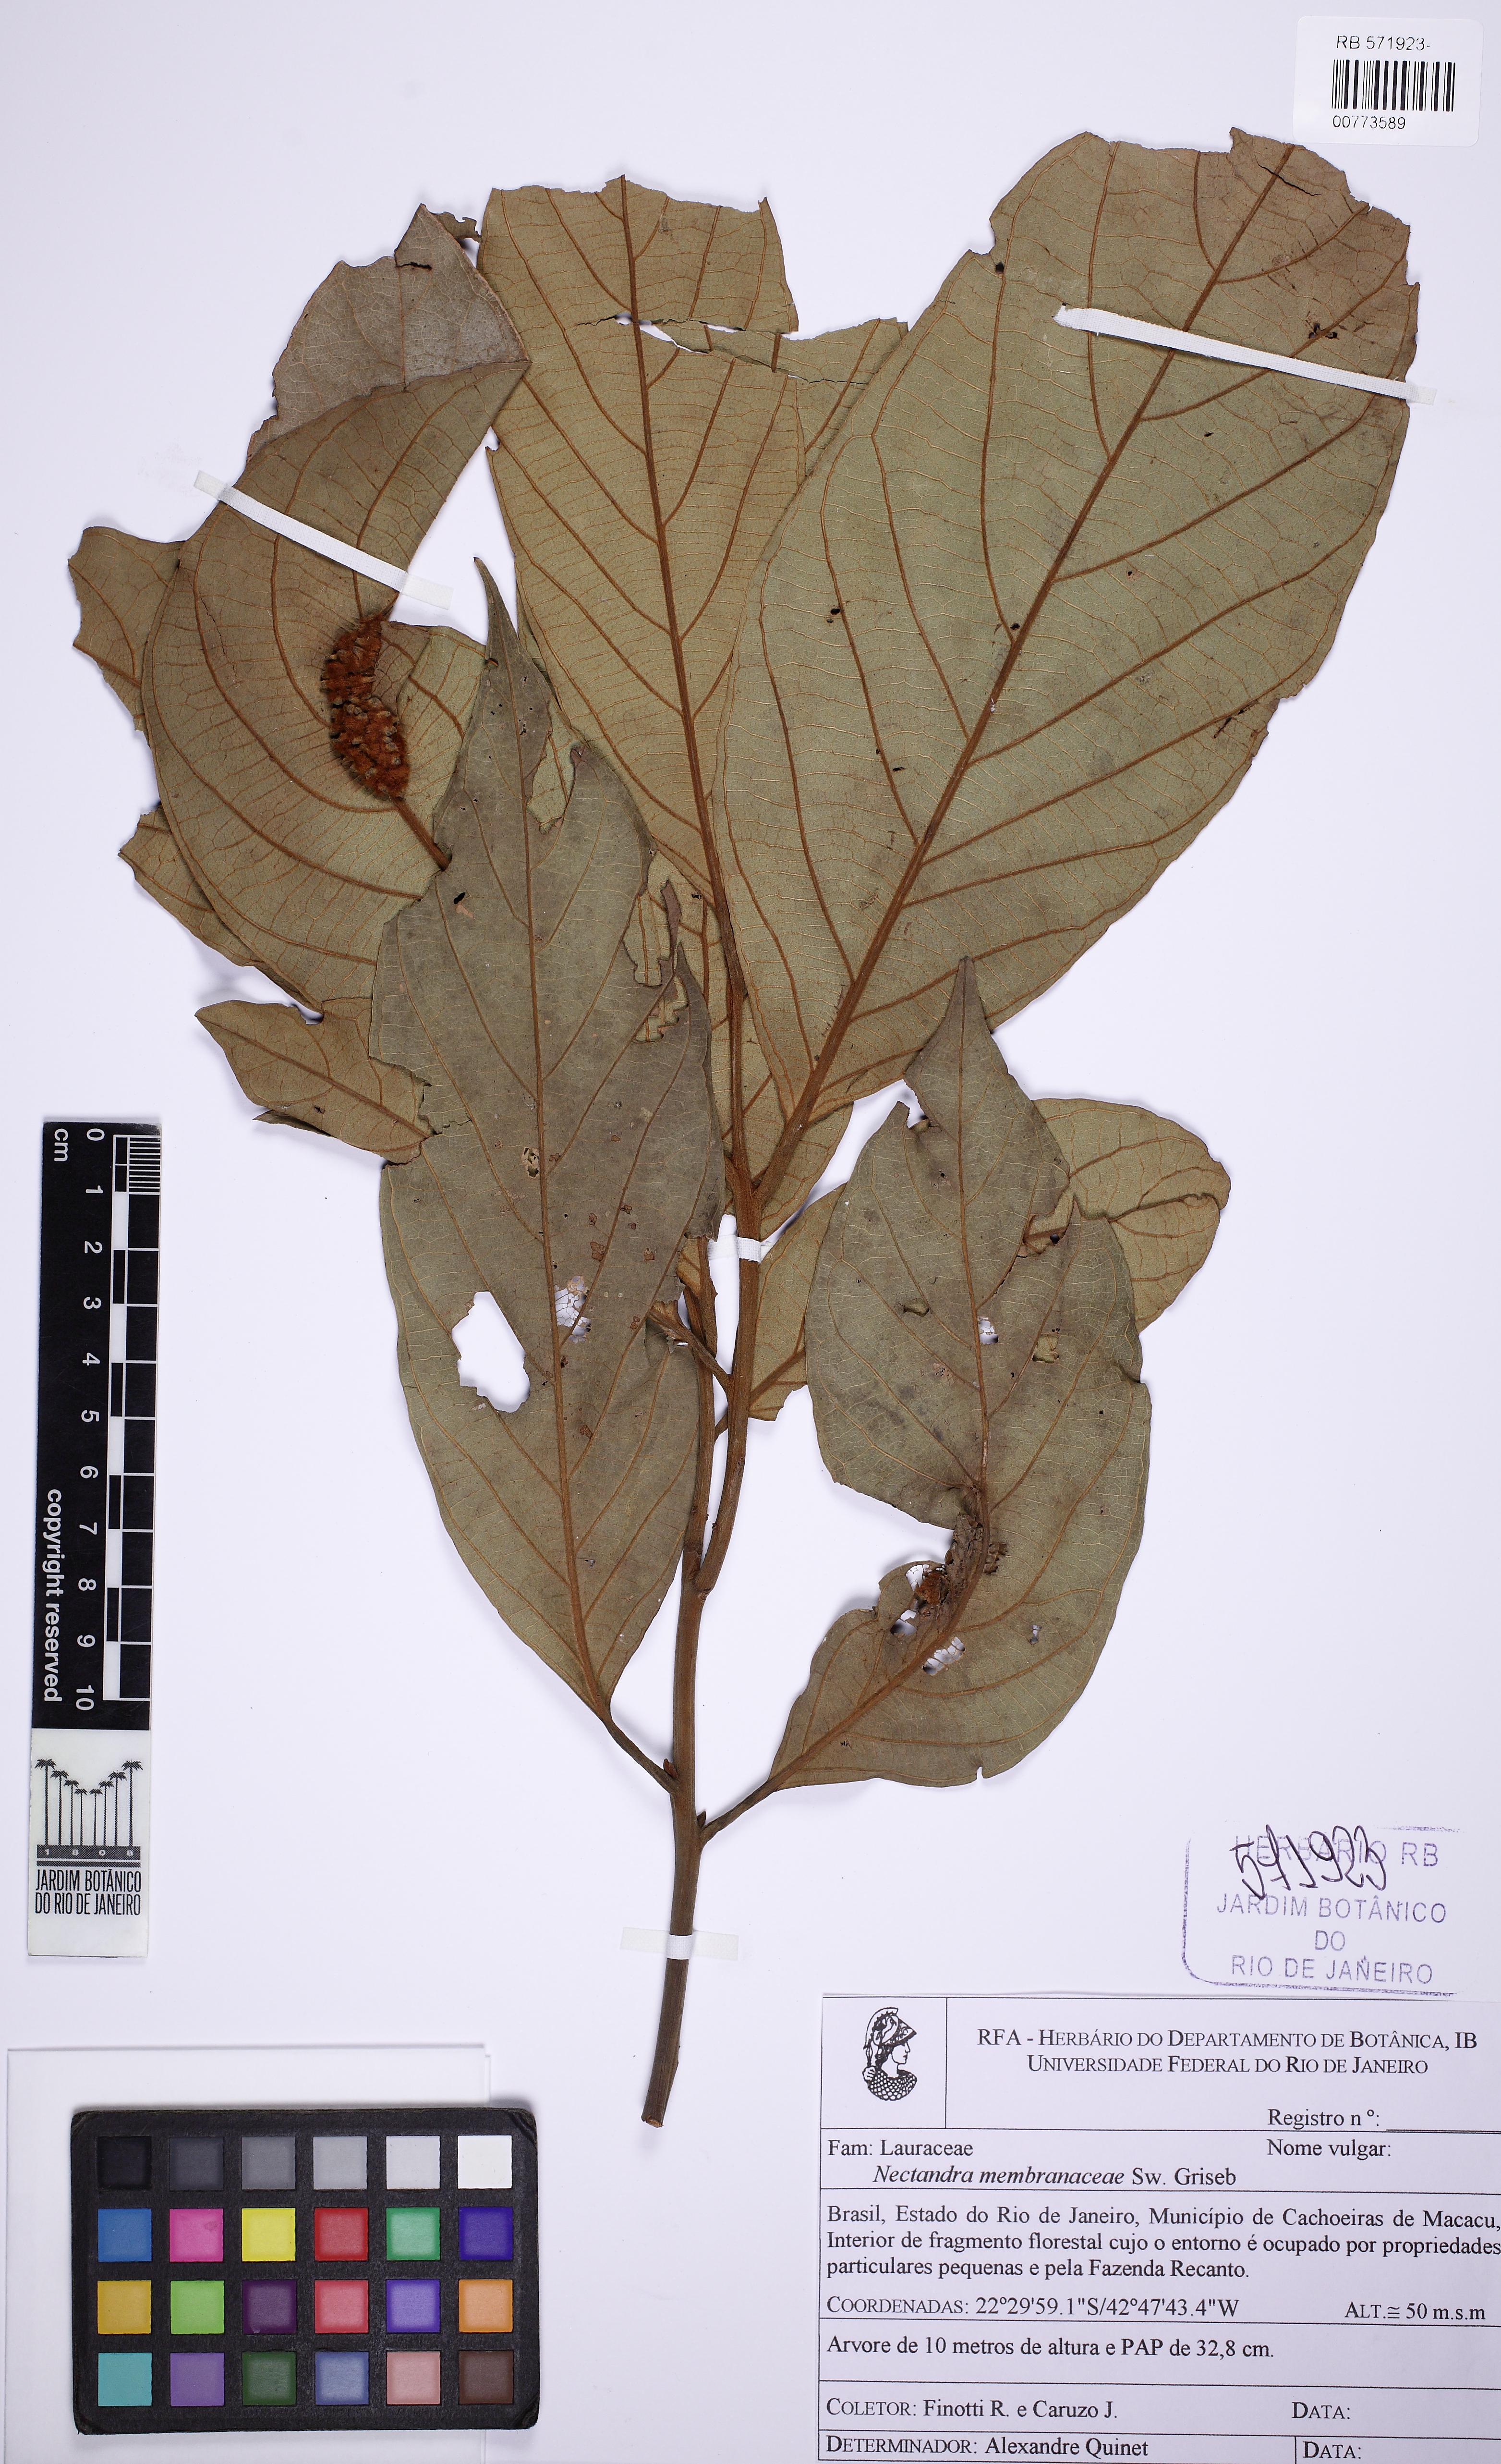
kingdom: Plantae
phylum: Tracheophyta
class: Magnoliopsida
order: Laurales
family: Lauraceae
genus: Nectandra
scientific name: Nectandra membranacea
